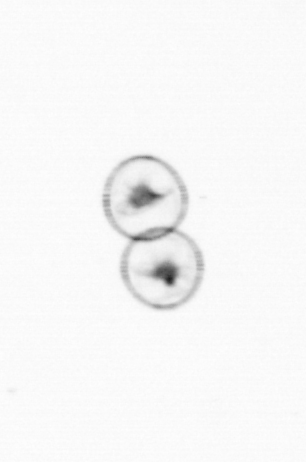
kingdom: Chromista
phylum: Myzozoa
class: Dinophyceae
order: Noctilucales
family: Noctilucaceae
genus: Noctiluca
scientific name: Noctiluca scintillans
